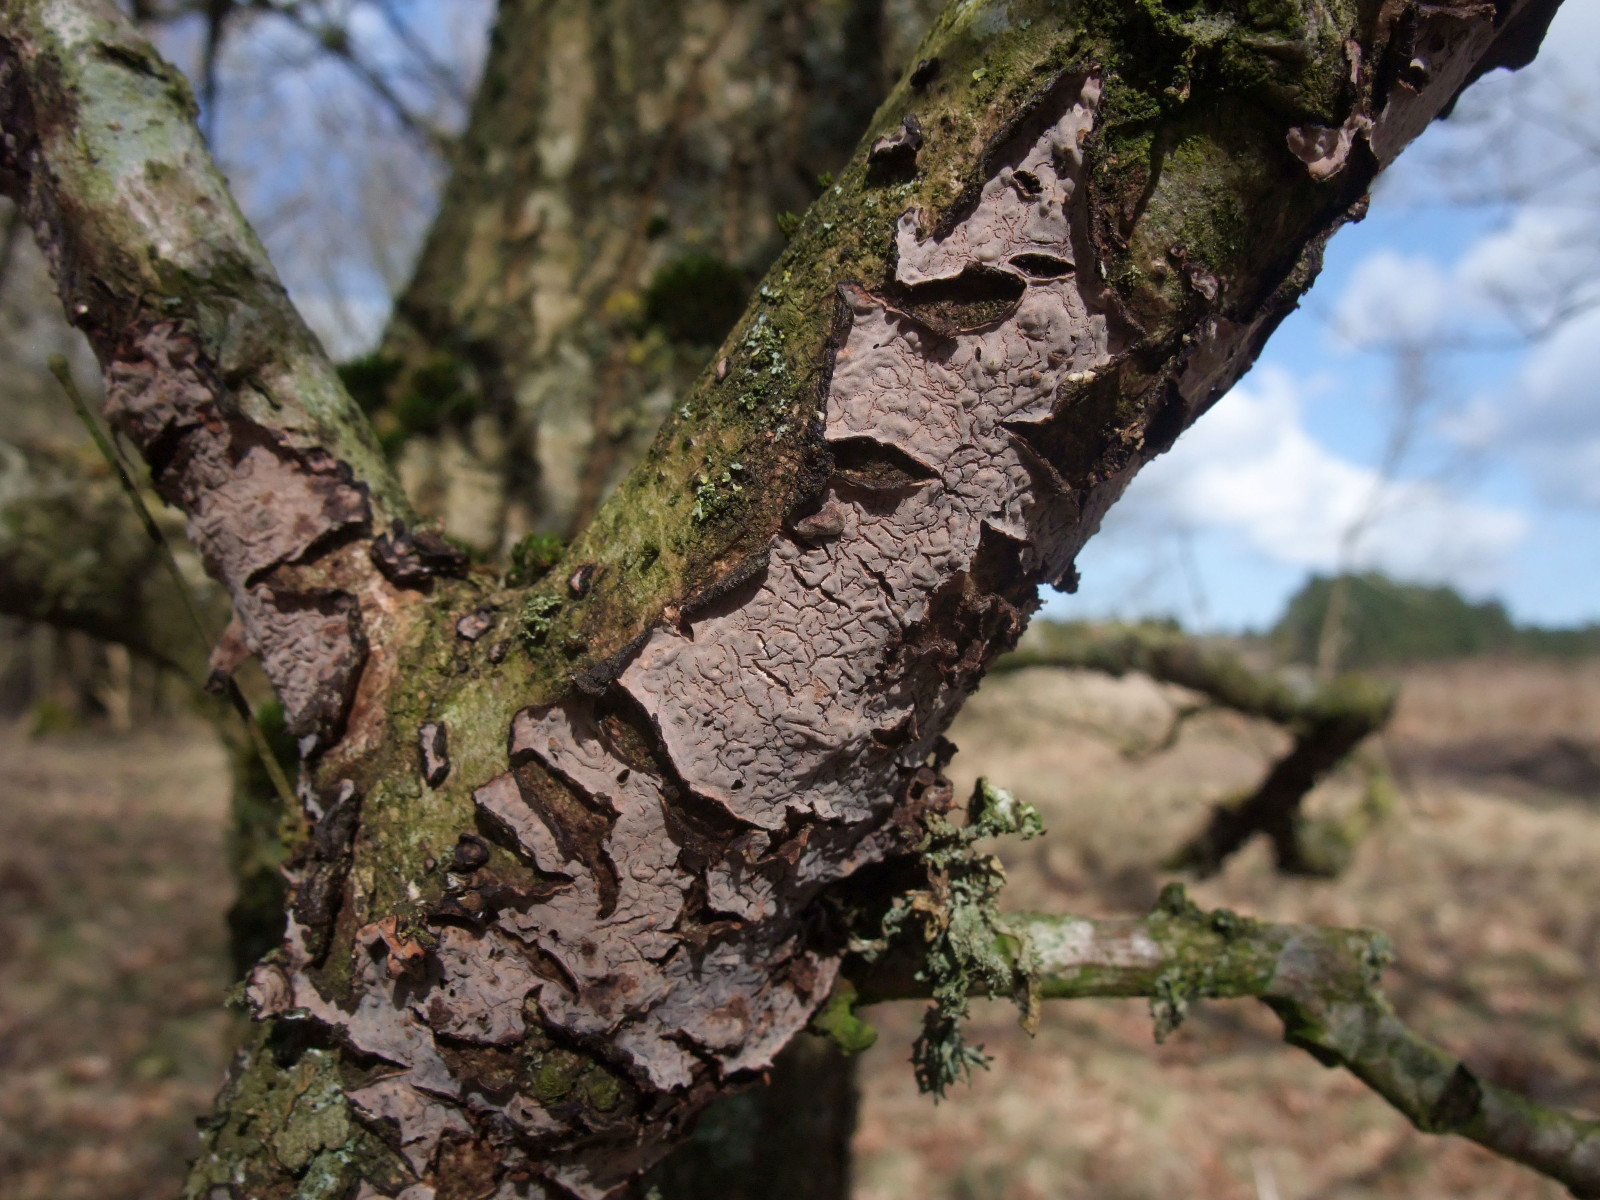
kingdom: Fungi
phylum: Basidiomycota
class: Agaricomycetes
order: Russulales
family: Peniophoraceae
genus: Peniophora
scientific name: Peniophora quercina
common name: ege-voksskind
